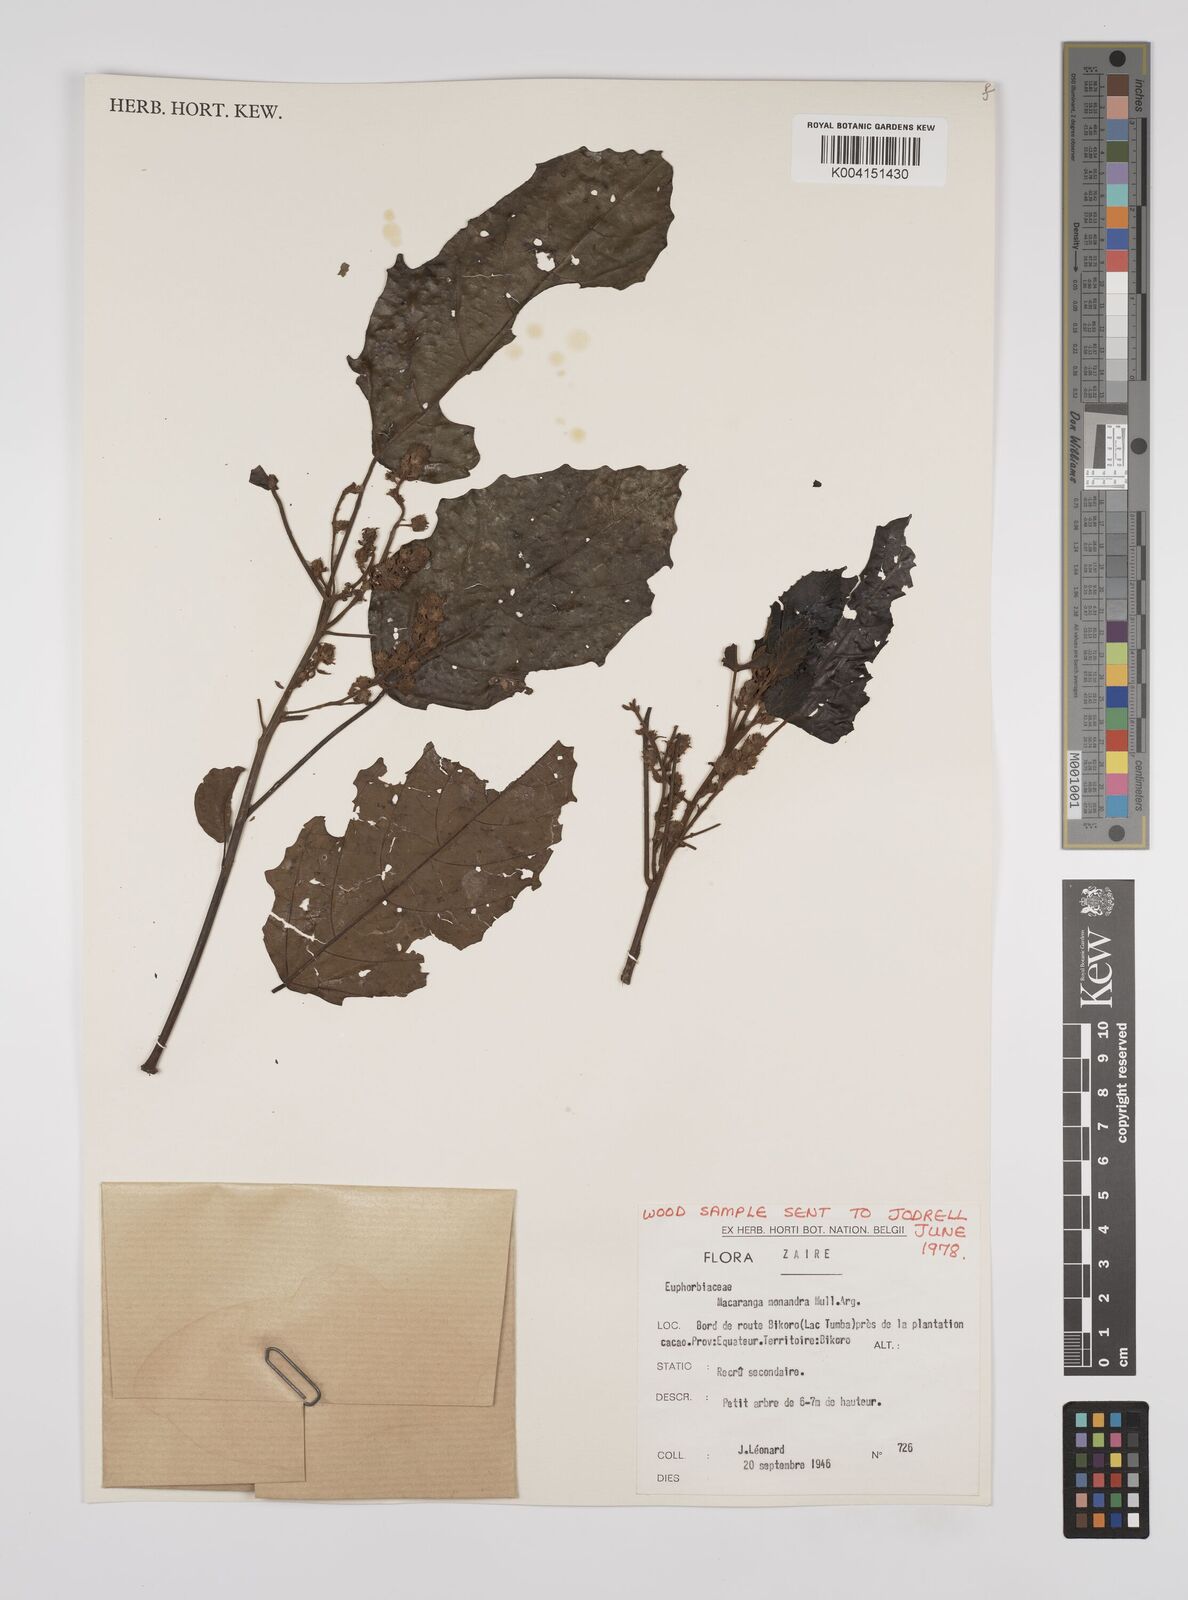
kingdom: Plantae
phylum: Tracheophyta
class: Magnoliopsida
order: Malpighiales
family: Euphorbiaceae
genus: Macaranga
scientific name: Macaranga monandra
